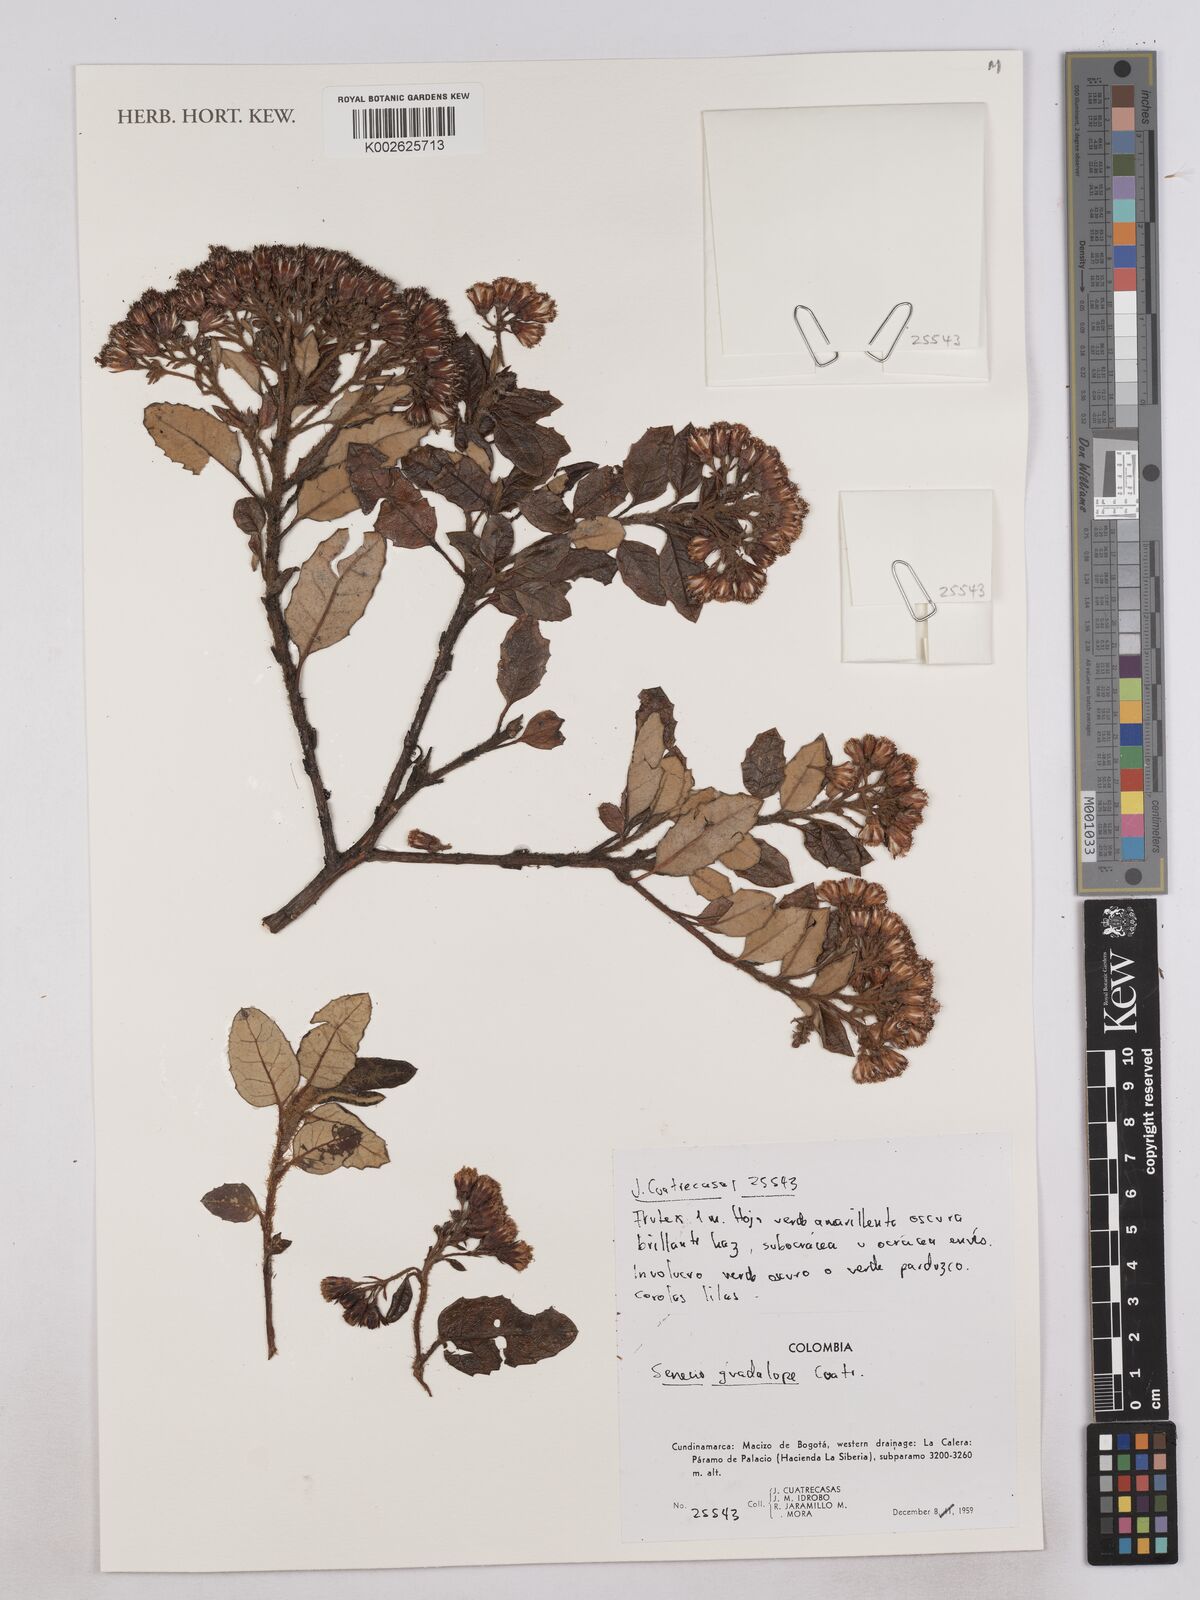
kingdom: Plantae
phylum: Tracheophyta
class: Magnoliopsida
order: Asterales
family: Asteraceae
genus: Monticalia
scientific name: Monticalia guadalupe
